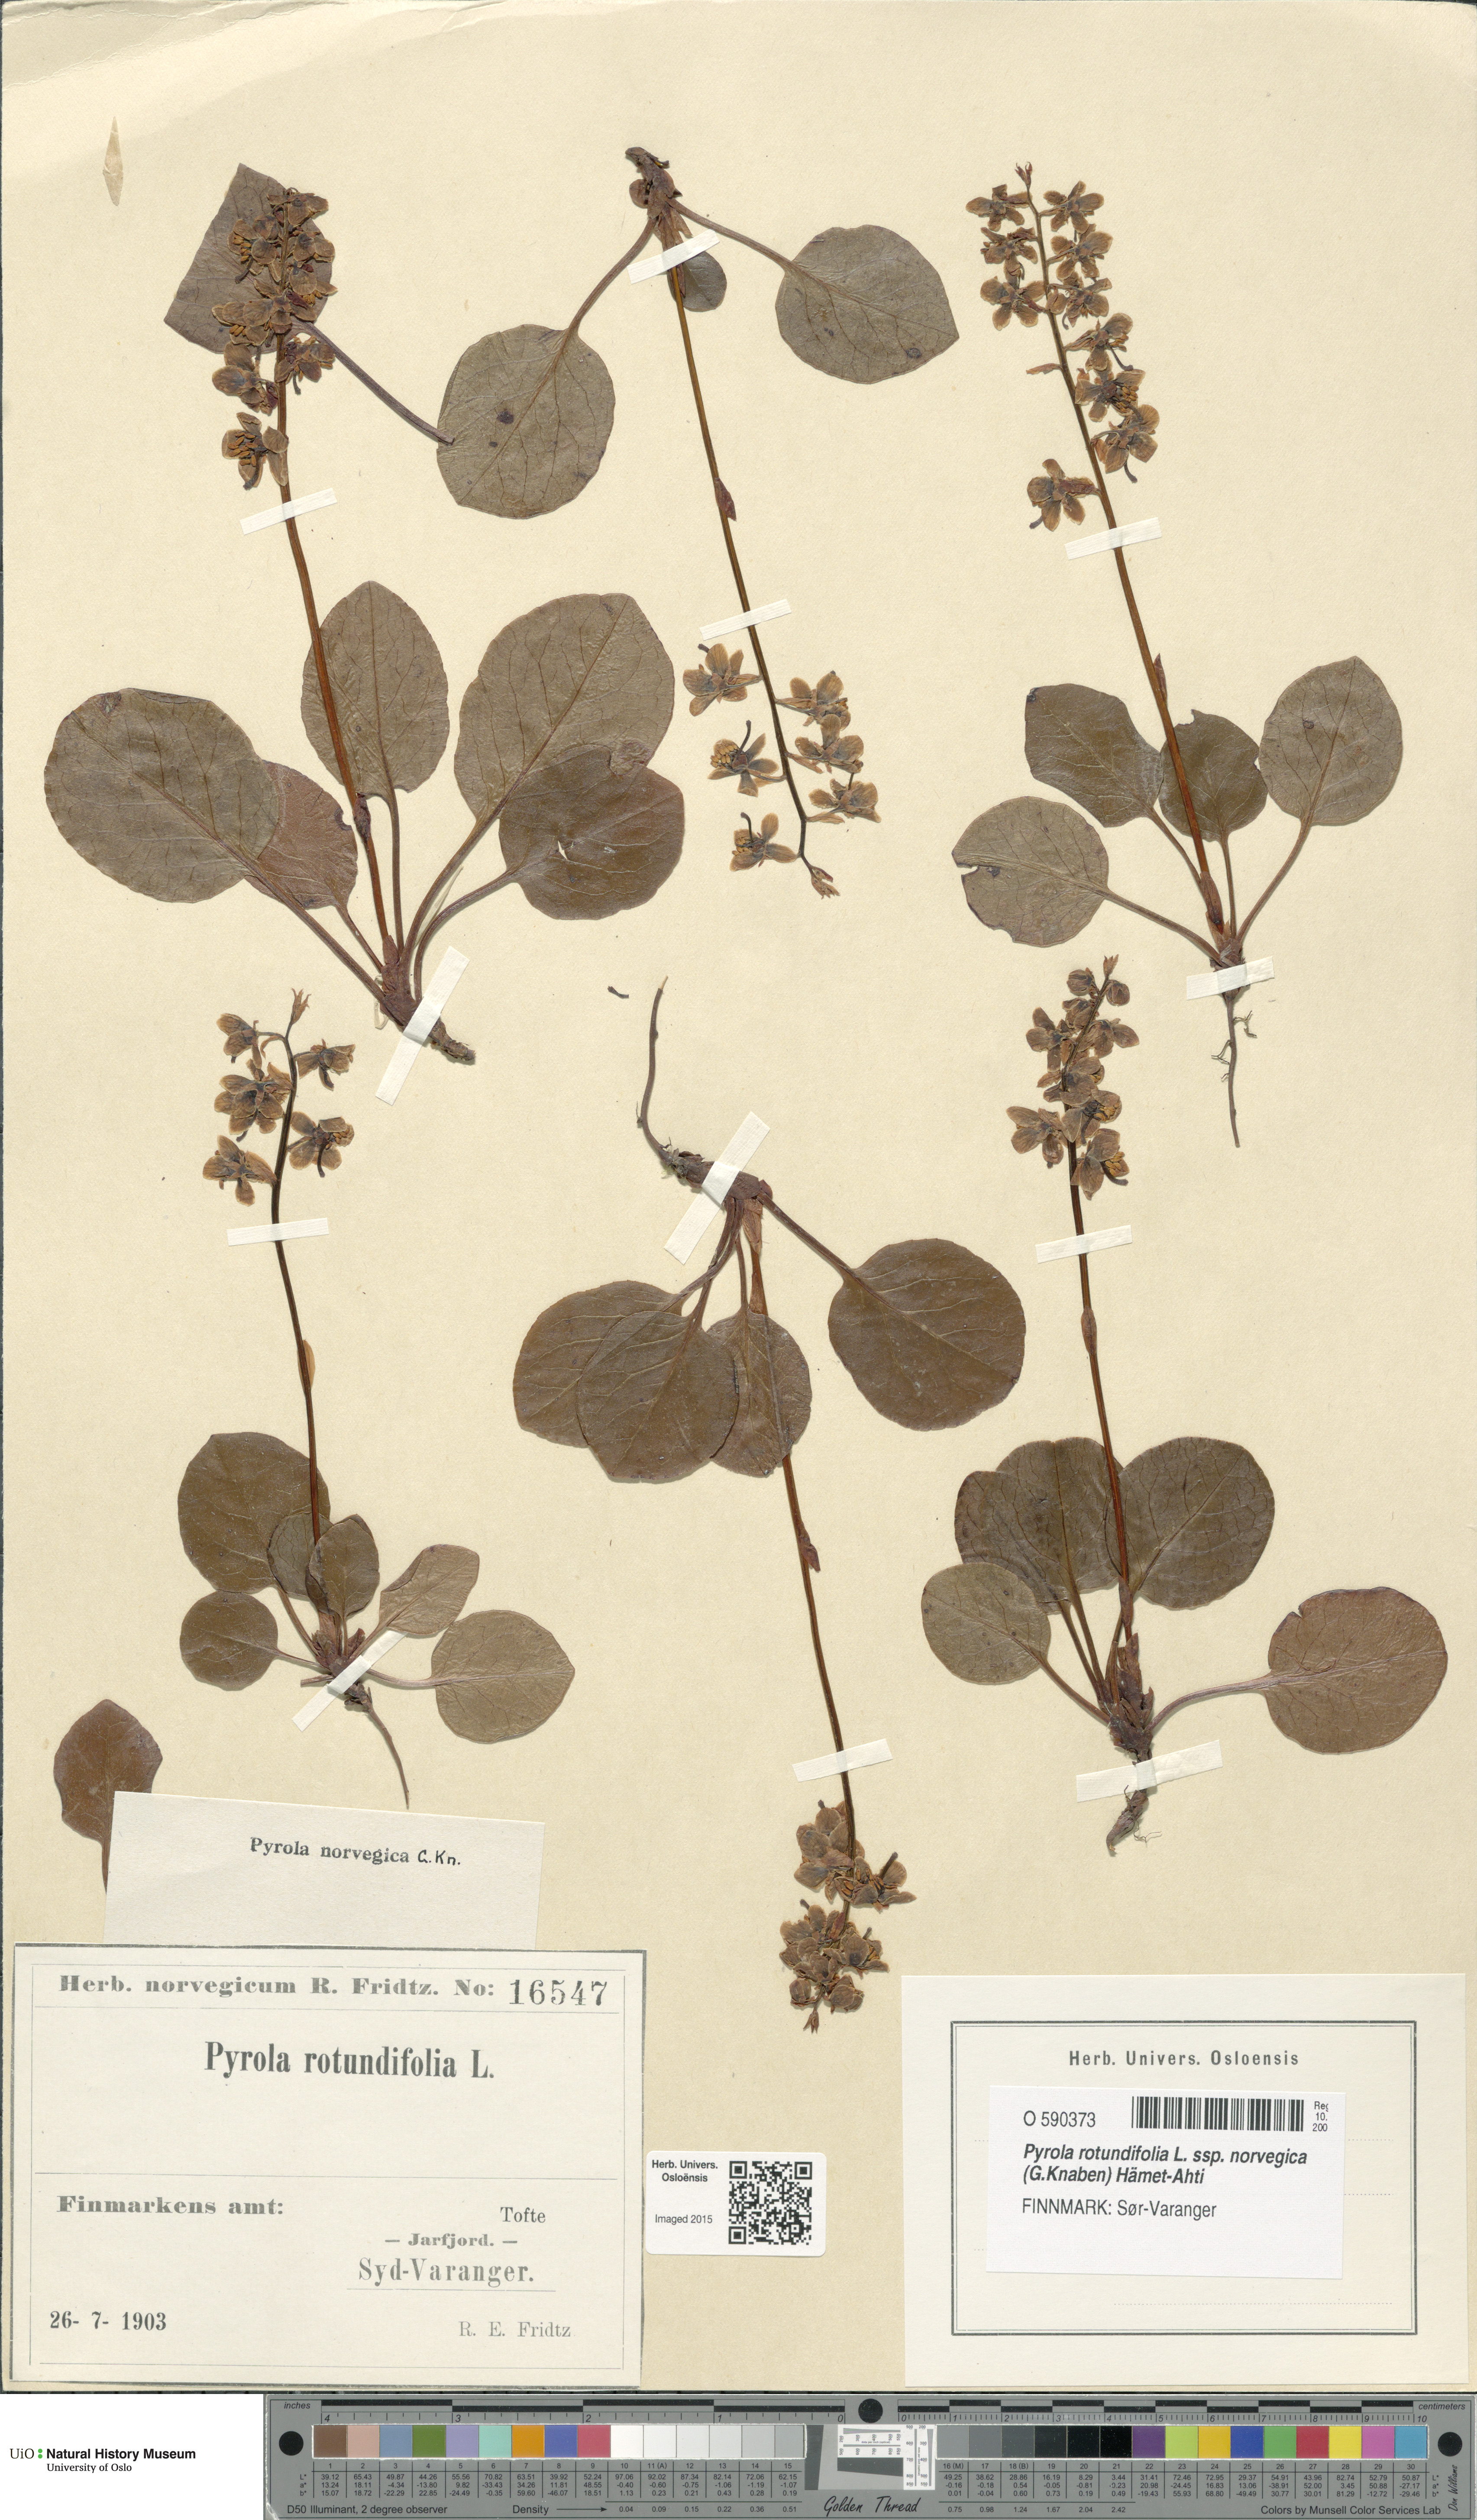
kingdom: Plantae
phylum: Tracheophyta
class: Magnoliopsida
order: Ericales
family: Ericaceae
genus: Pyrola
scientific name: Pyrola rotundifolia
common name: Round-leaved wintergreen
